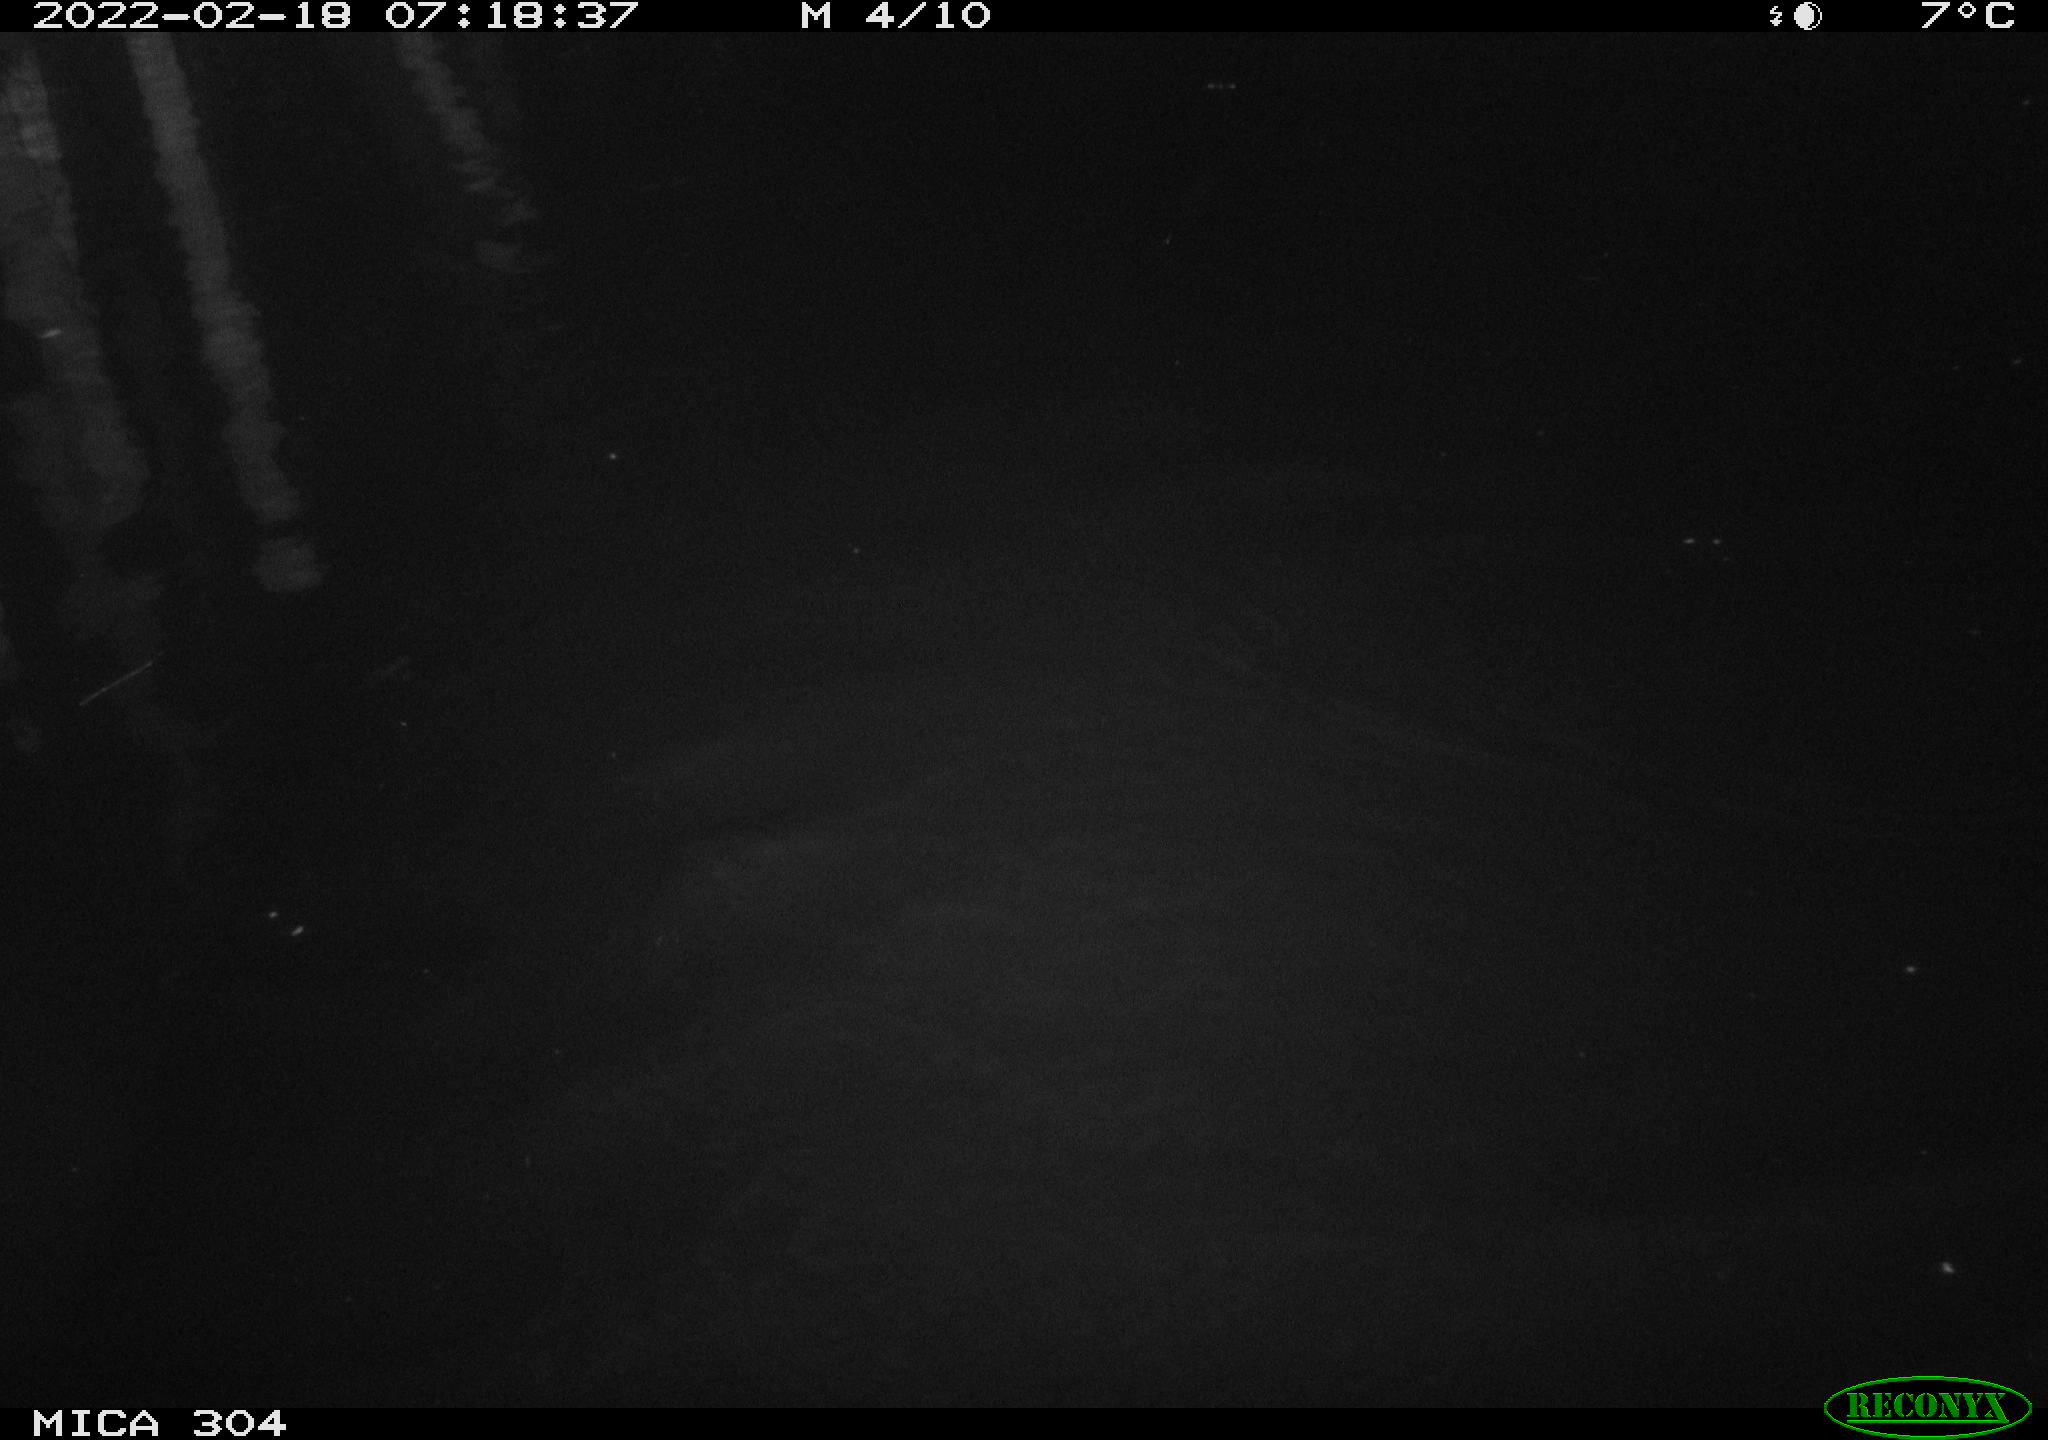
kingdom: Animalia
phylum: Chordata
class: Aves
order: Gruiformes
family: Rallidae
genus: Gallinula
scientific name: Gallinula chloropus
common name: Common moorhen
